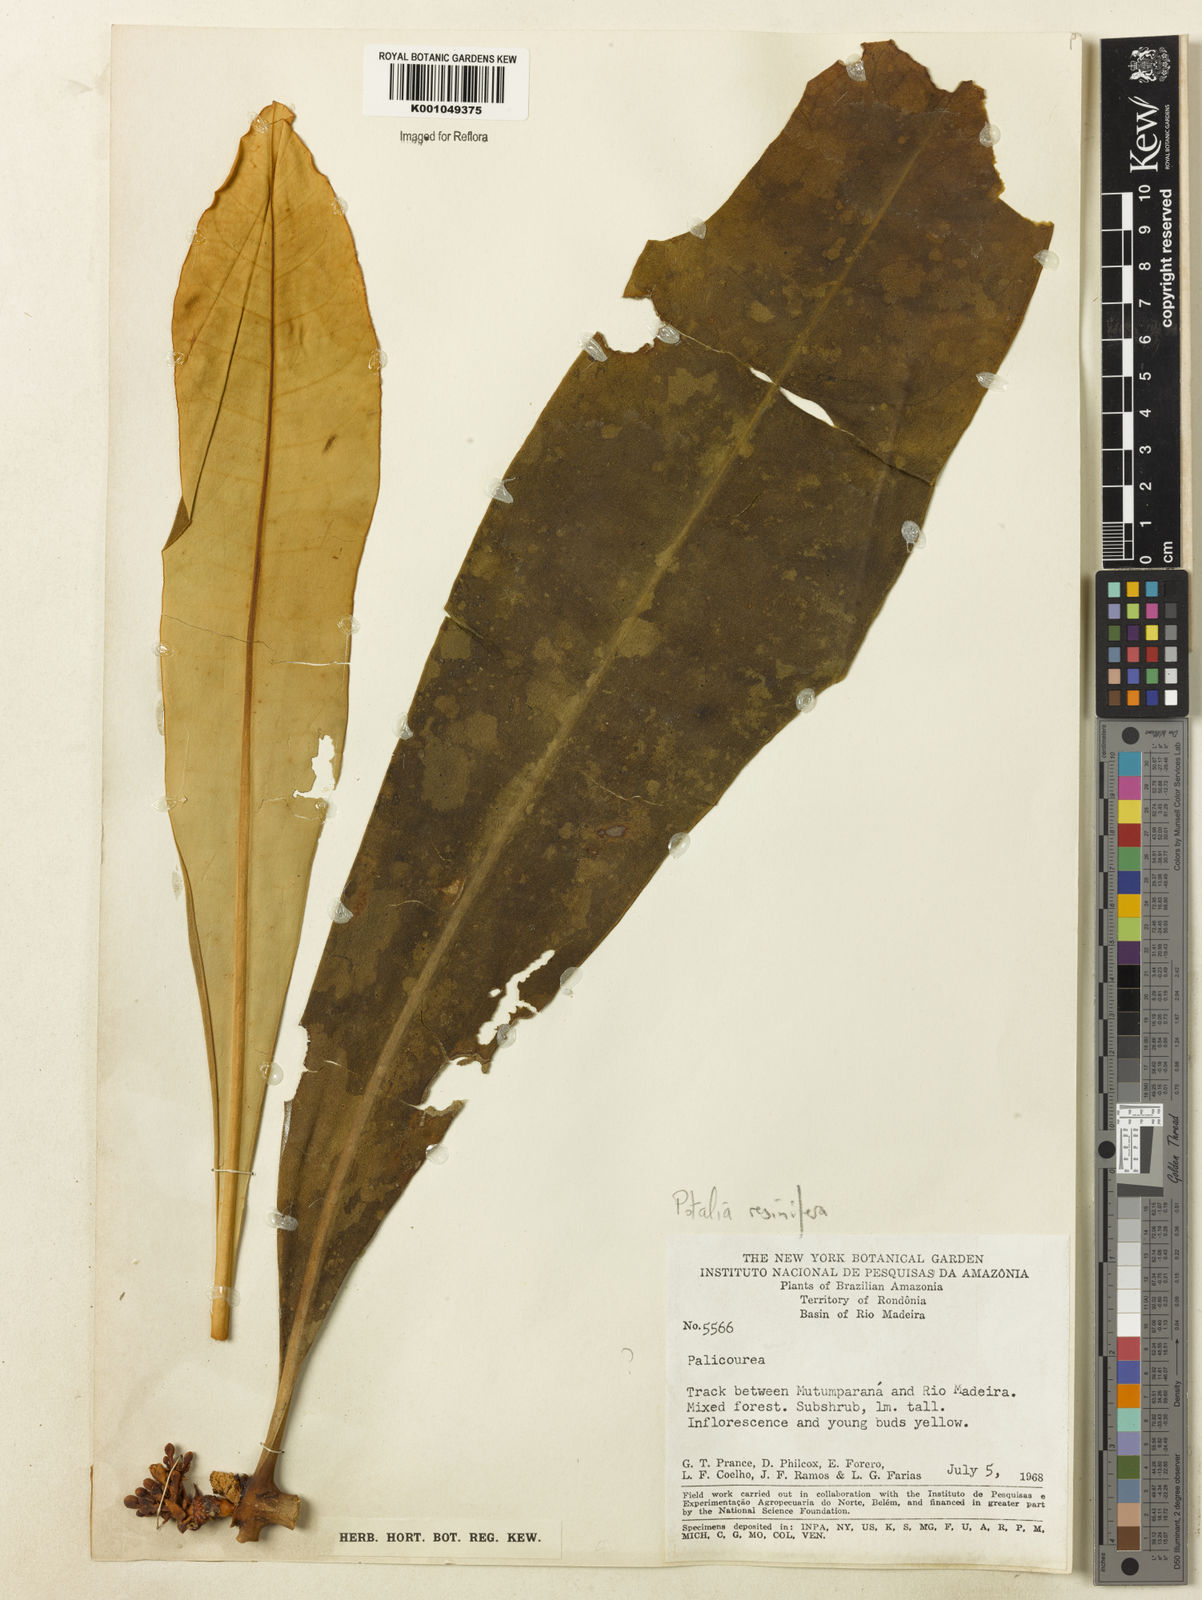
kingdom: Plantae
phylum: Tracheophyta
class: Magnoliopsida
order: Gentianales
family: Gentianaceae
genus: Potalia
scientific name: Potalia resinifera
